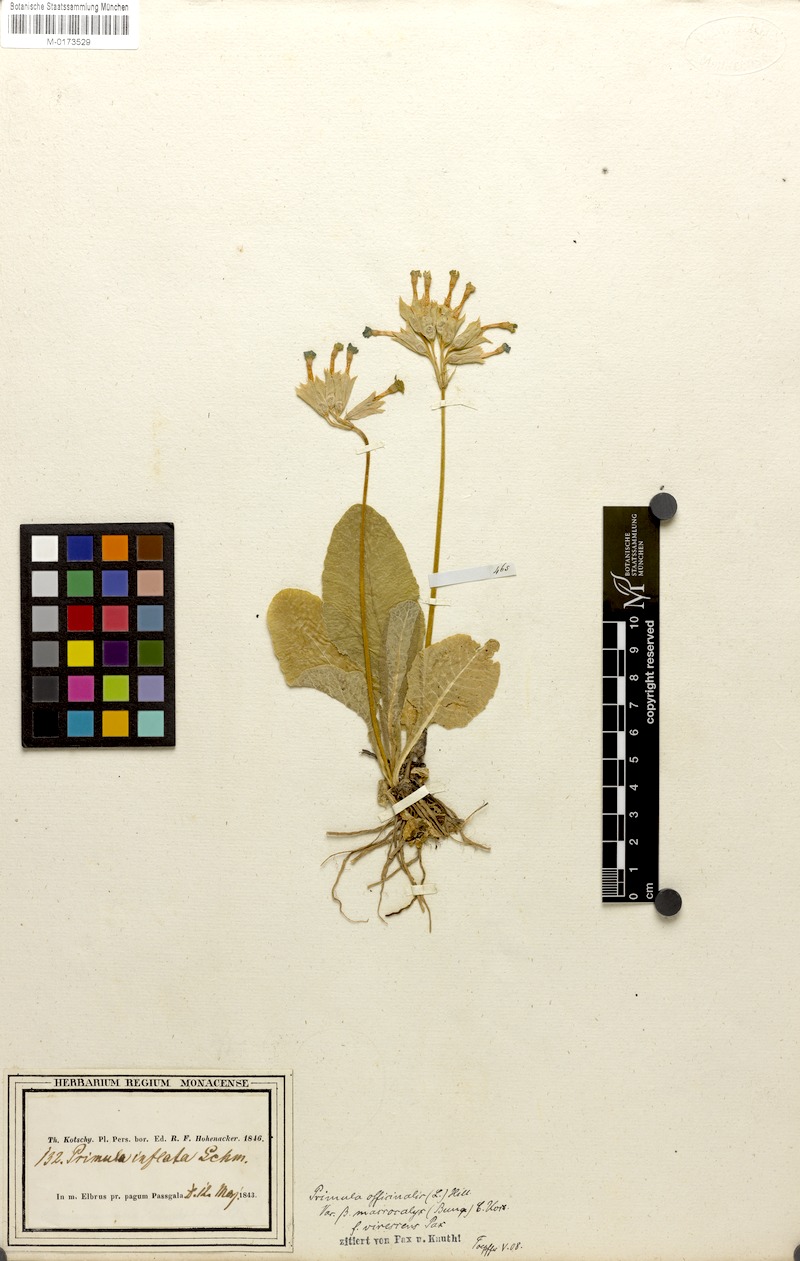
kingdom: Plantae
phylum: Tracheophyta
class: Magnoliopsida
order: Ericales
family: Primulaceae
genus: Primula
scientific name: Primula veris
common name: Cowslip
